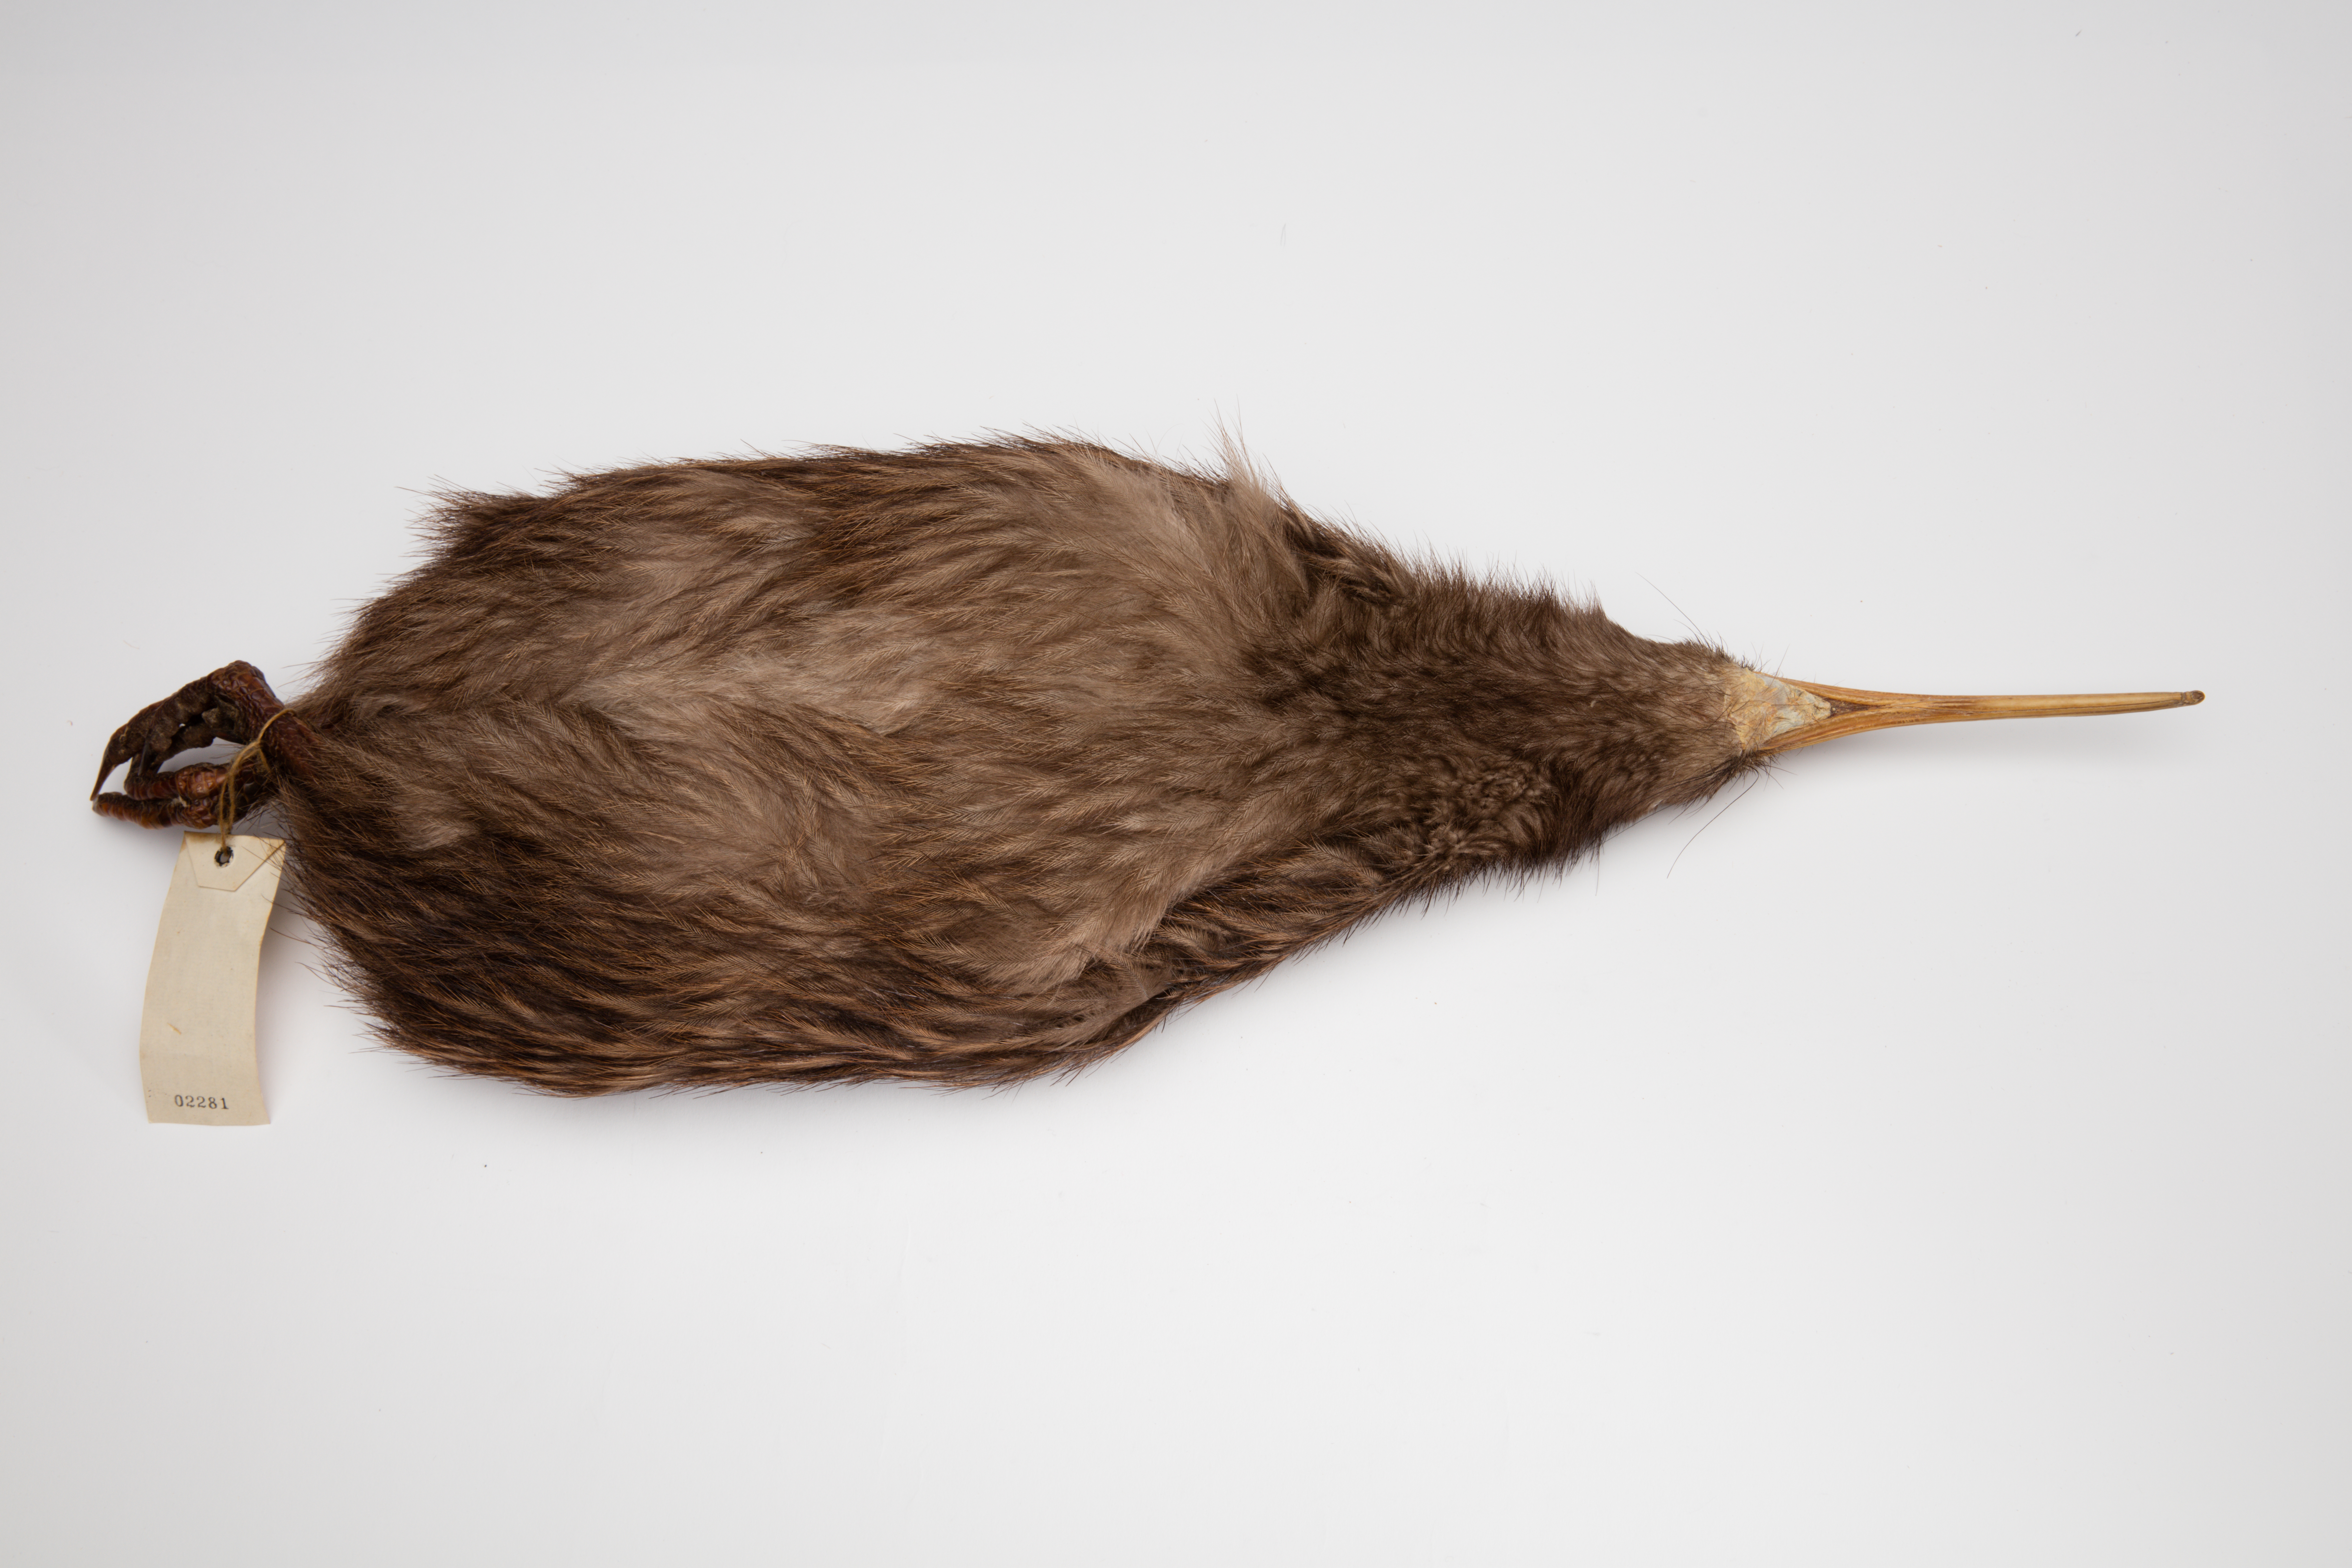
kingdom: Animalia
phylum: Chordata
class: Aves
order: Apterygiformes
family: Apterygidae
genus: Apteryx
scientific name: Apteryx mantelli
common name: North island brown kiwi
